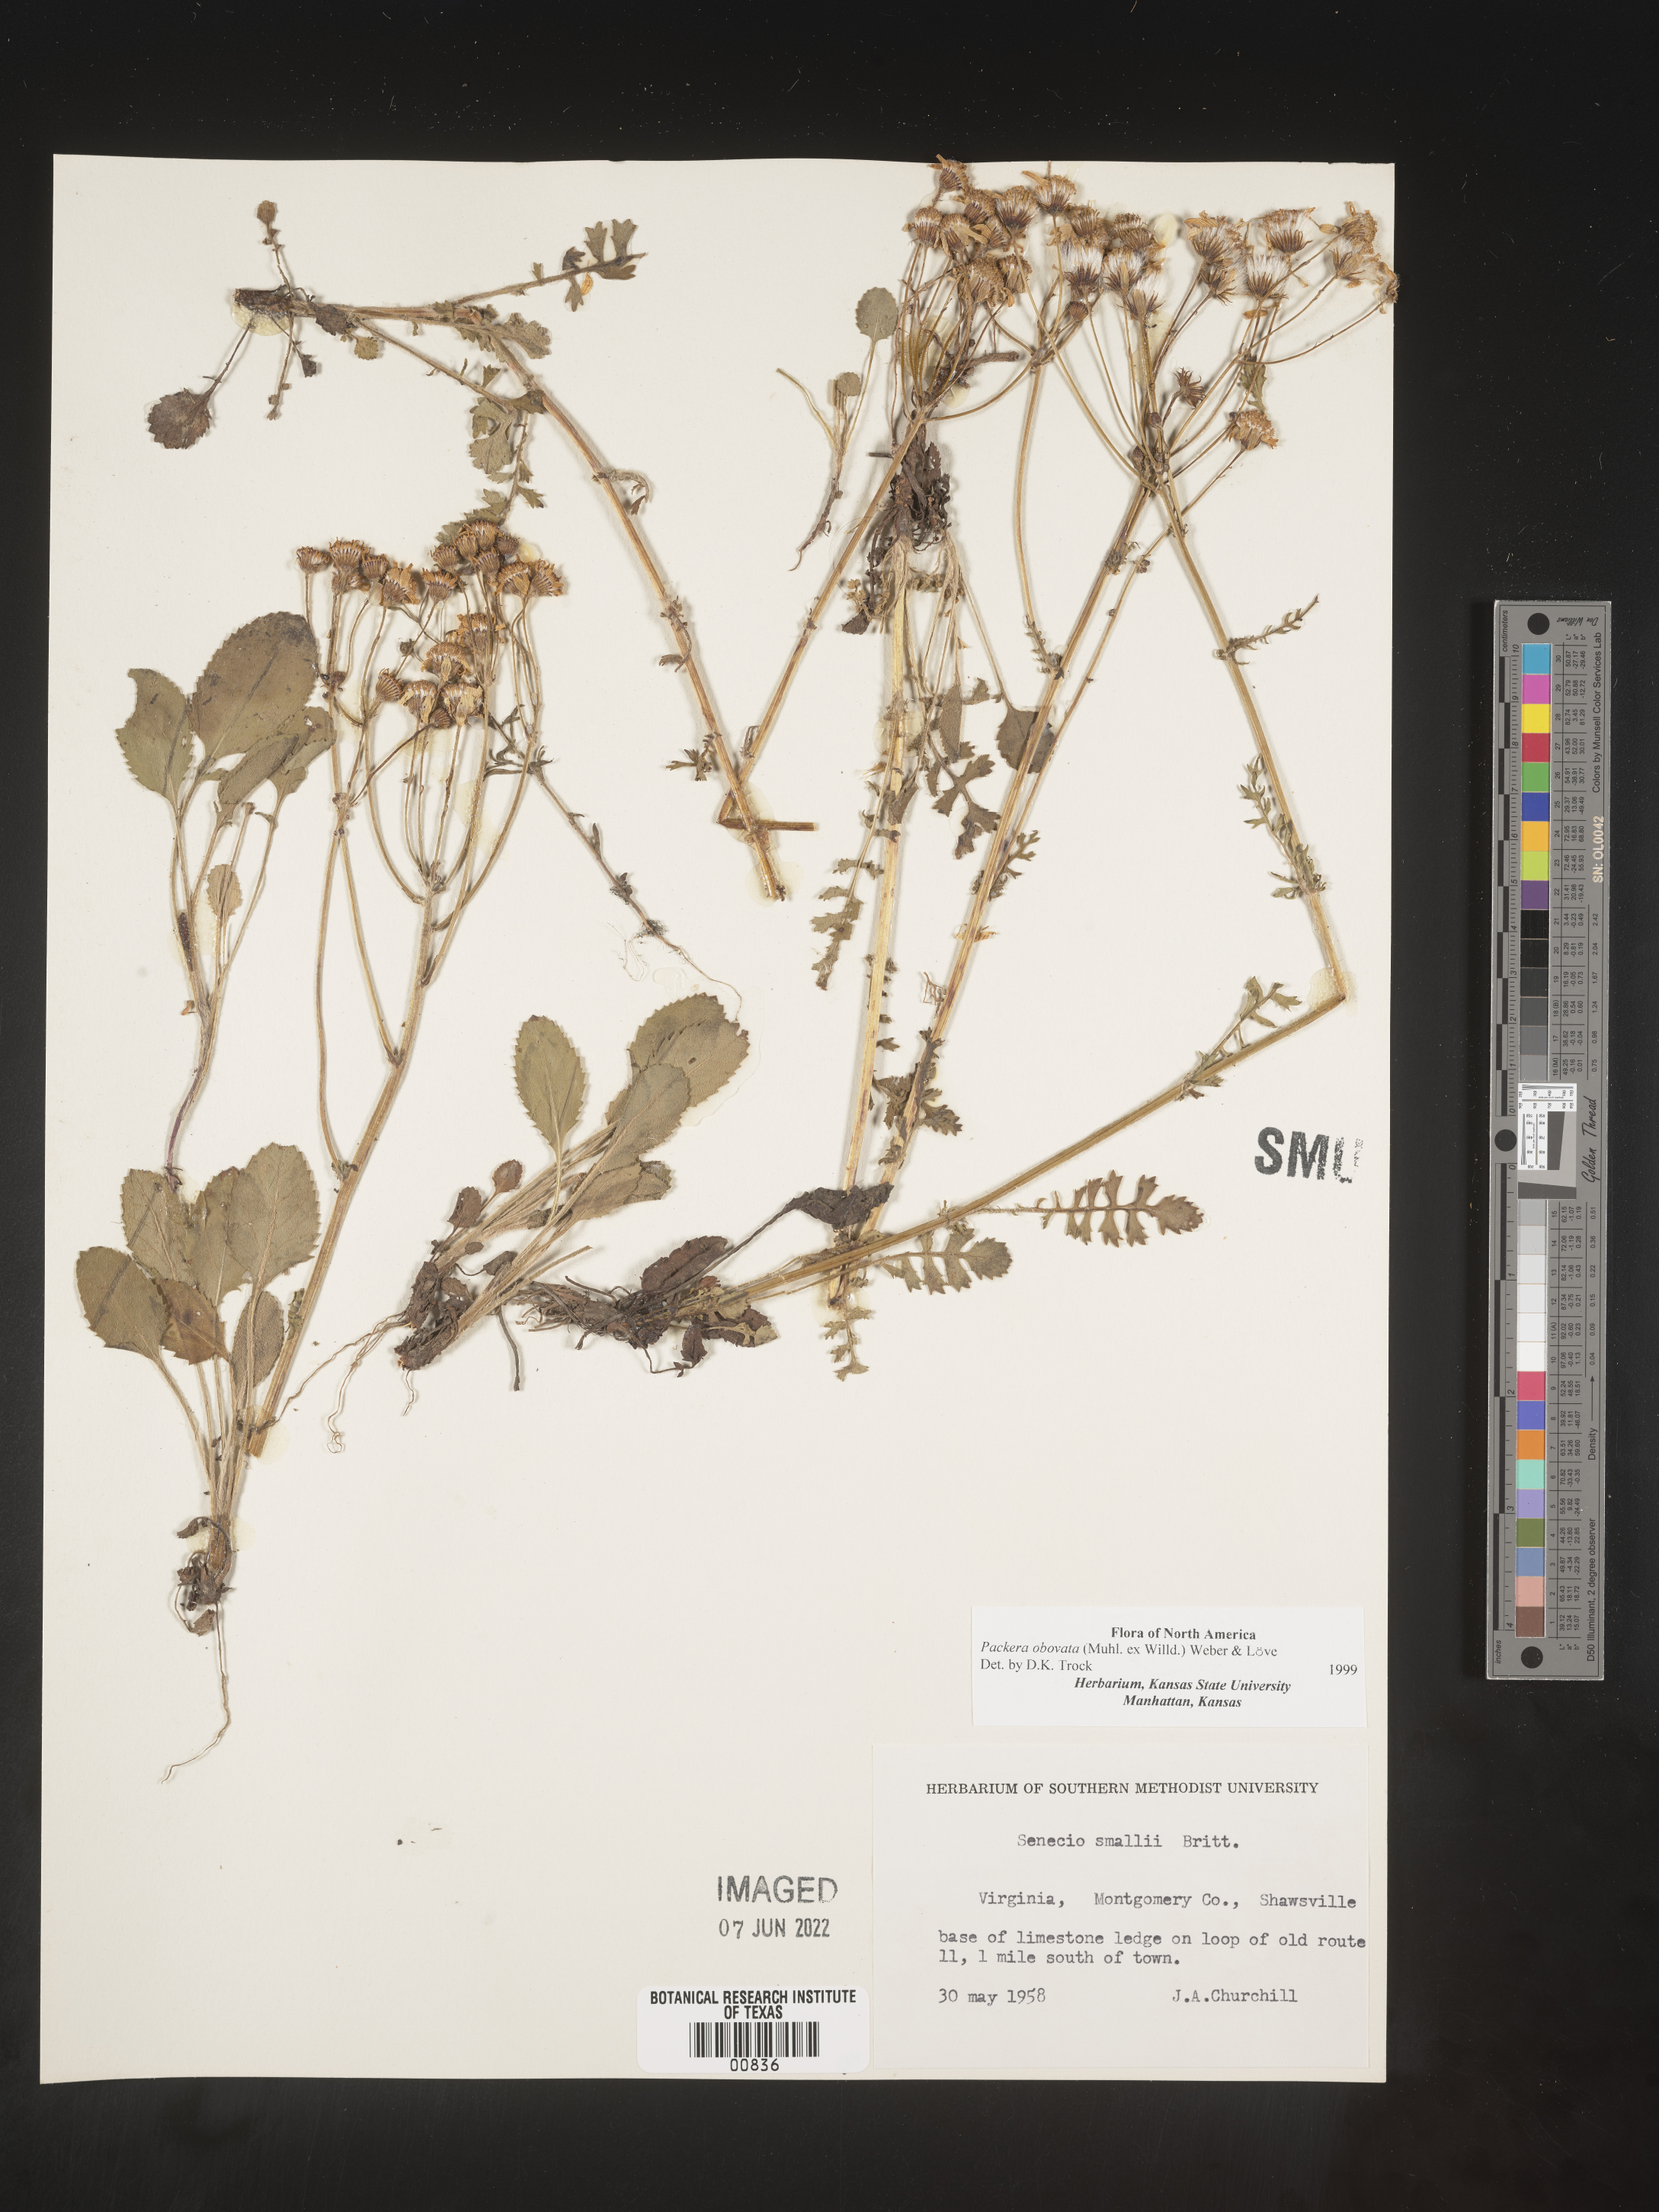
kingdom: Plantae
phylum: Tracheophyta
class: Magnoliopsida
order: Asterales
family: Asteraceae
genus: Packera
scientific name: Packera obovata
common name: Round-leaf ragwort
